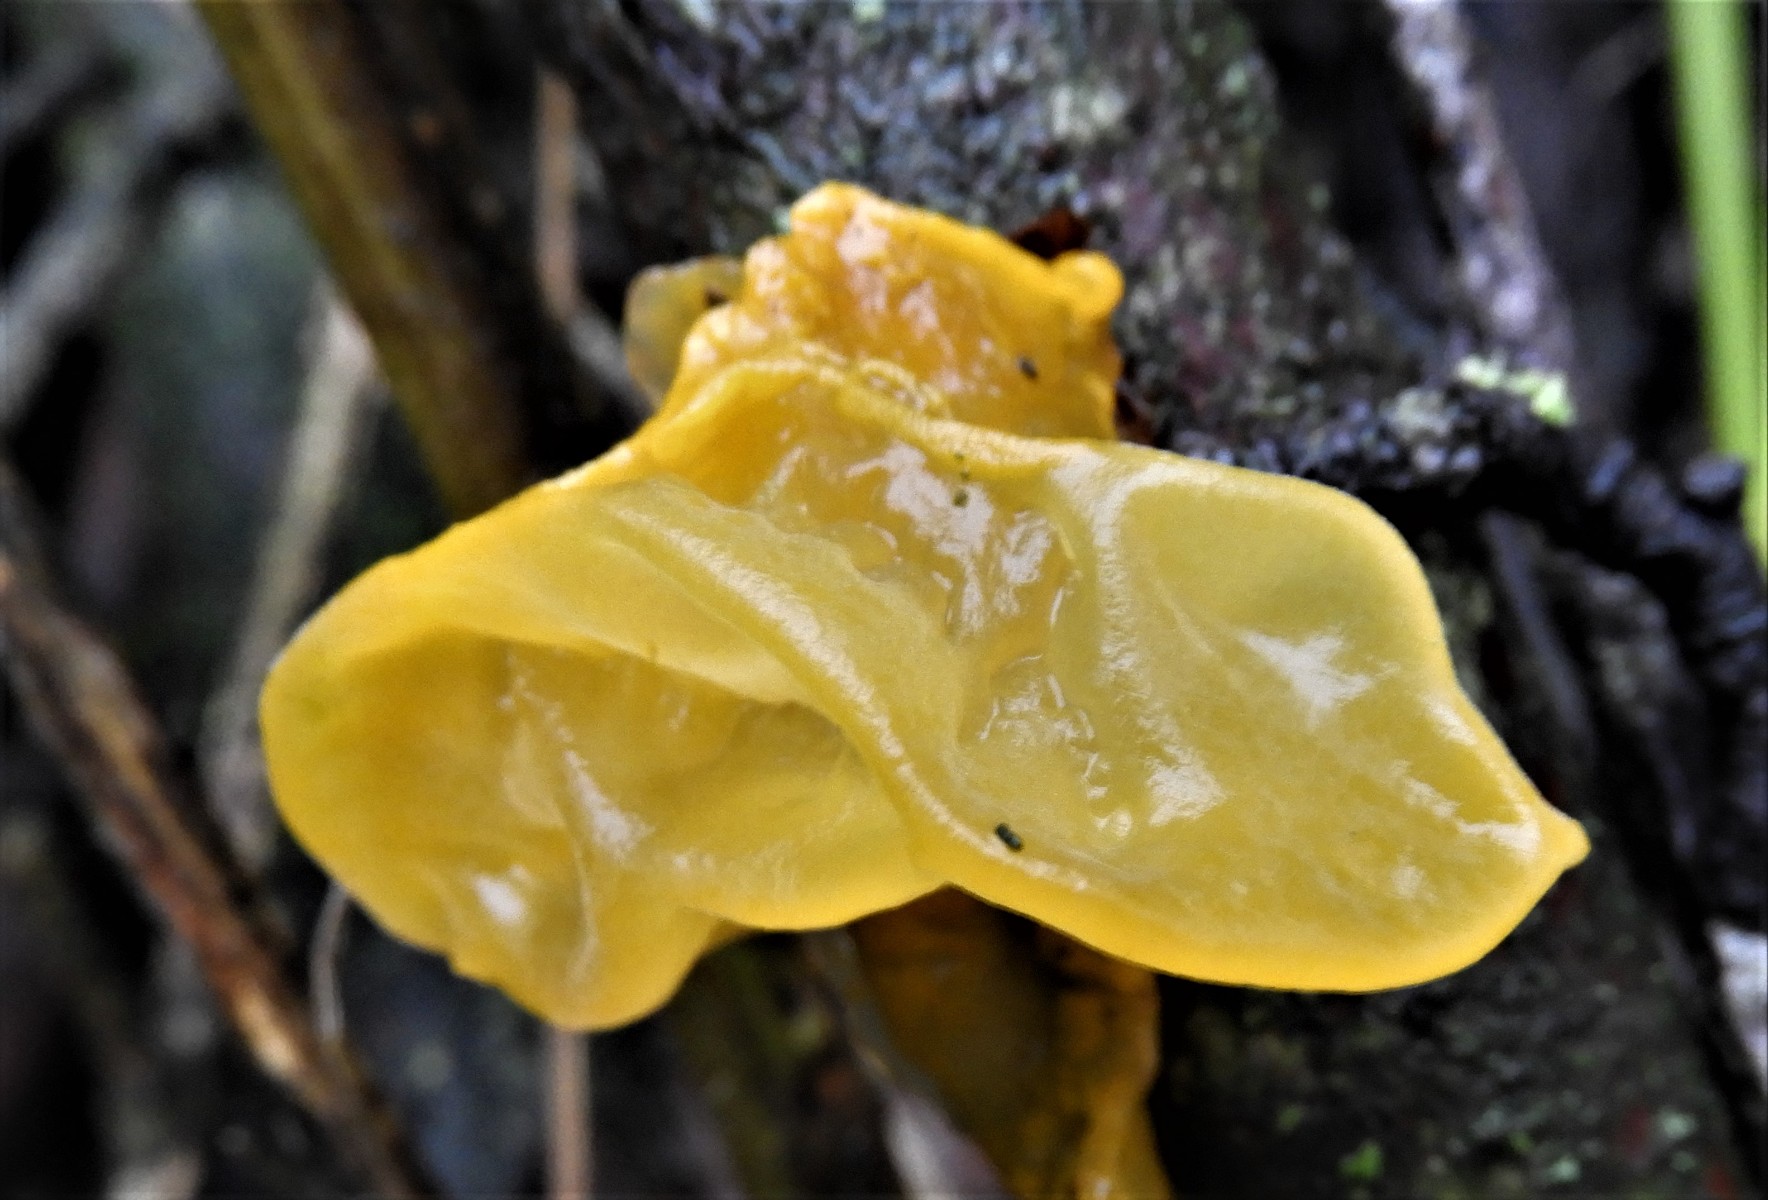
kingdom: Fungi
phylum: Basidiomycota
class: Tremellomycetes
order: Tremellales
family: Tremellaceae
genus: Tremella
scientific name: Tremella mesenterica
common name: gul bævresvamp
